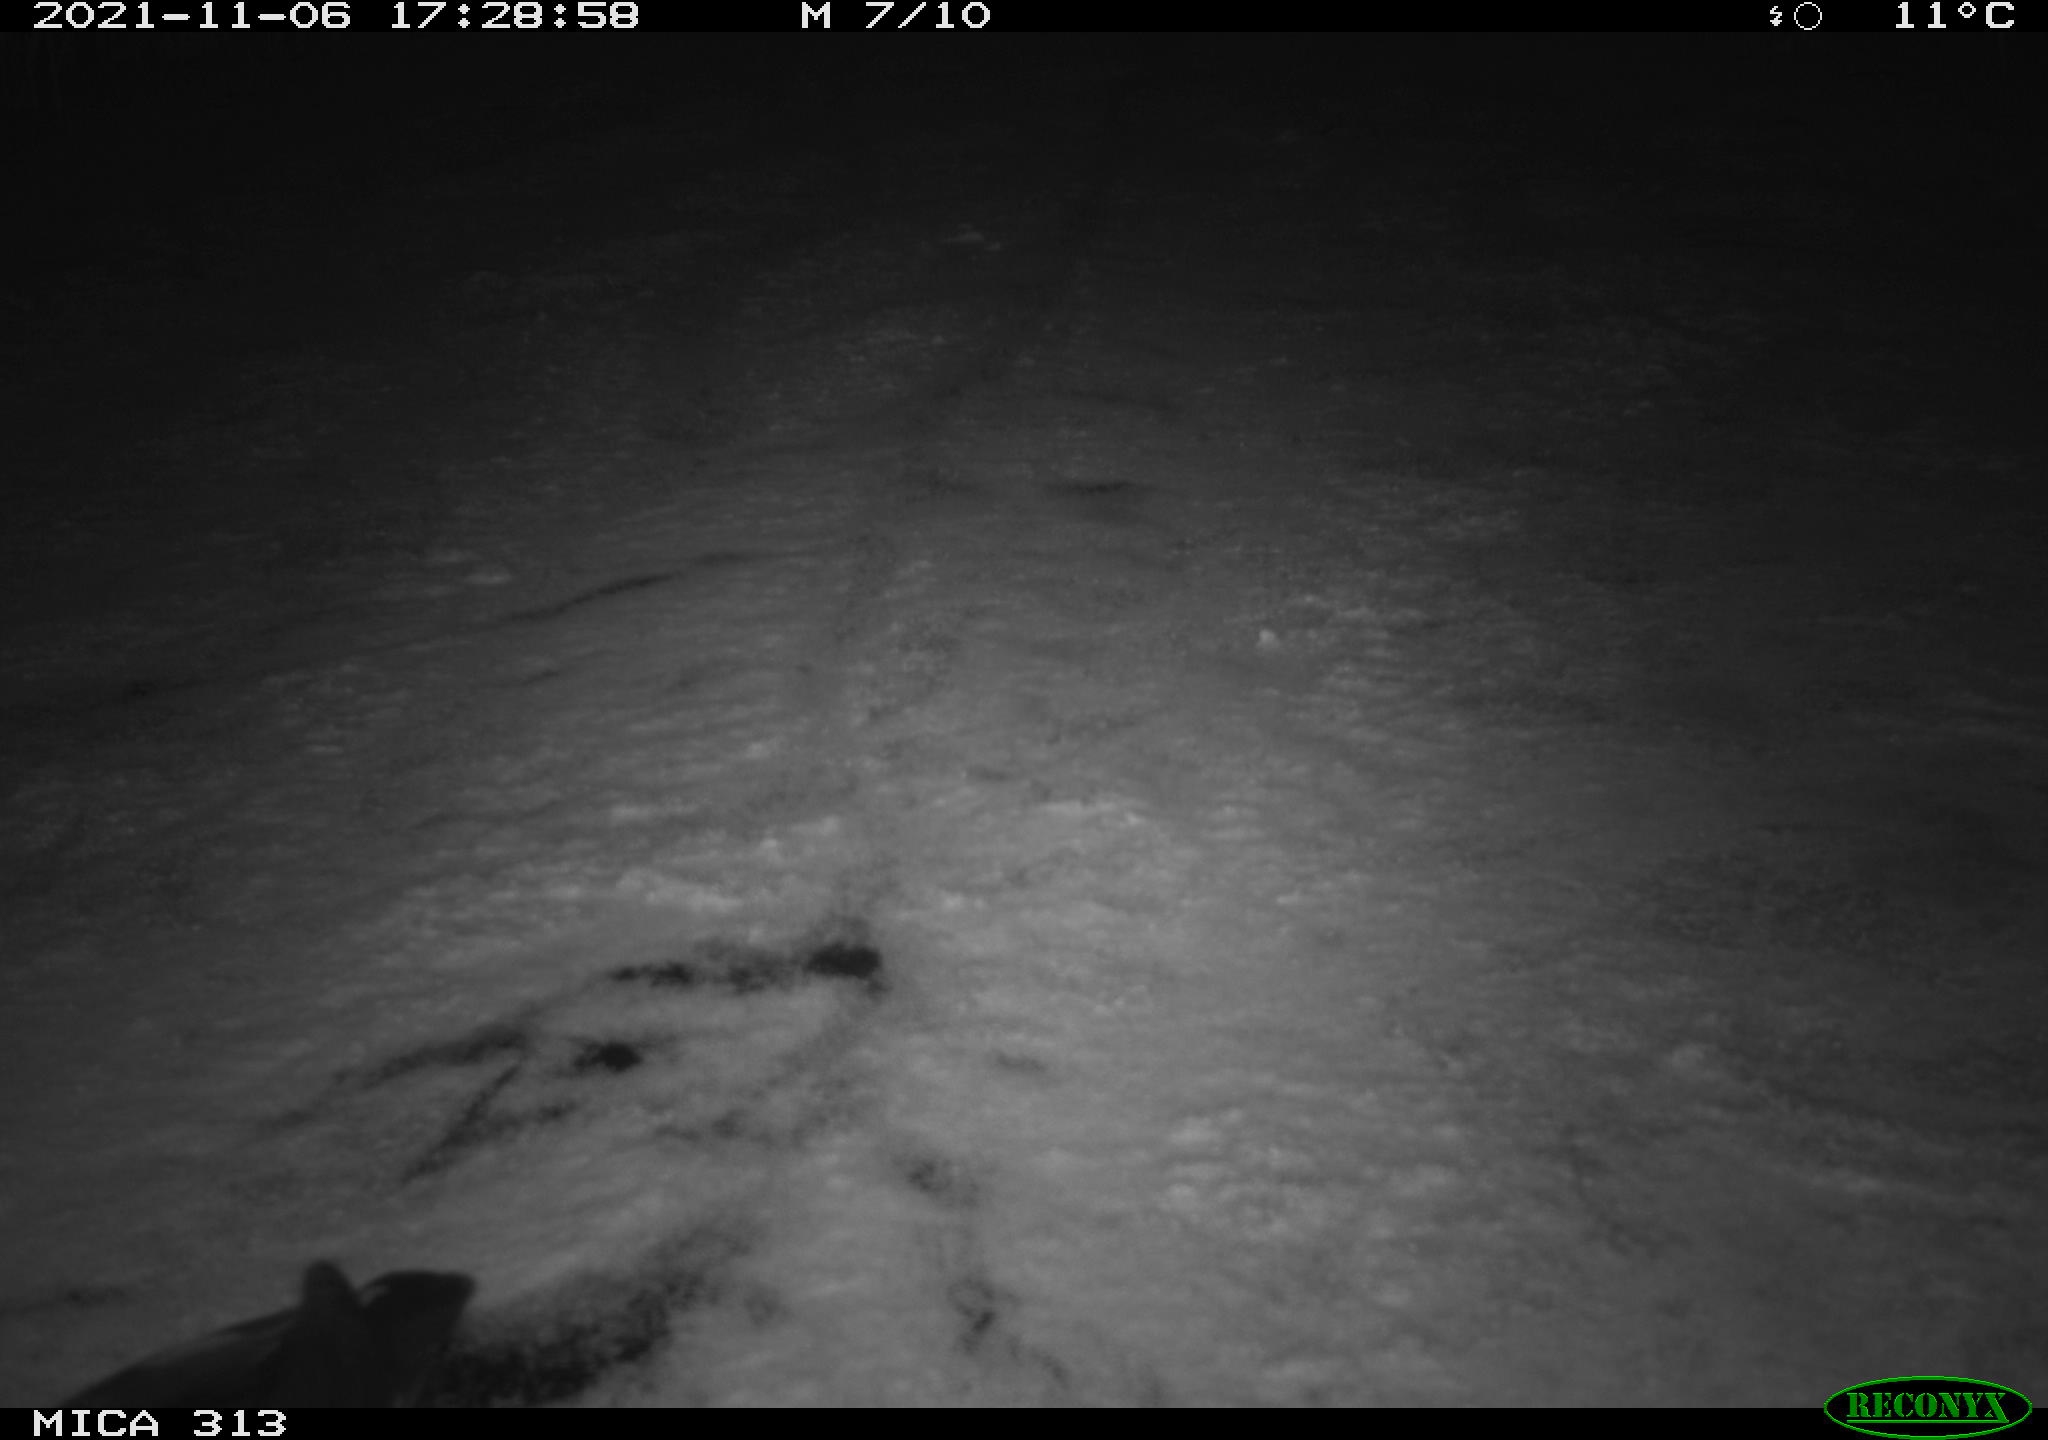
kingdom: Animalia
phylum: Chordata
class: Aves
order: Gruiformes
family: Rallidae
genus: Fulica
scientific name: Fulica atra
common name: Eurasian coot
